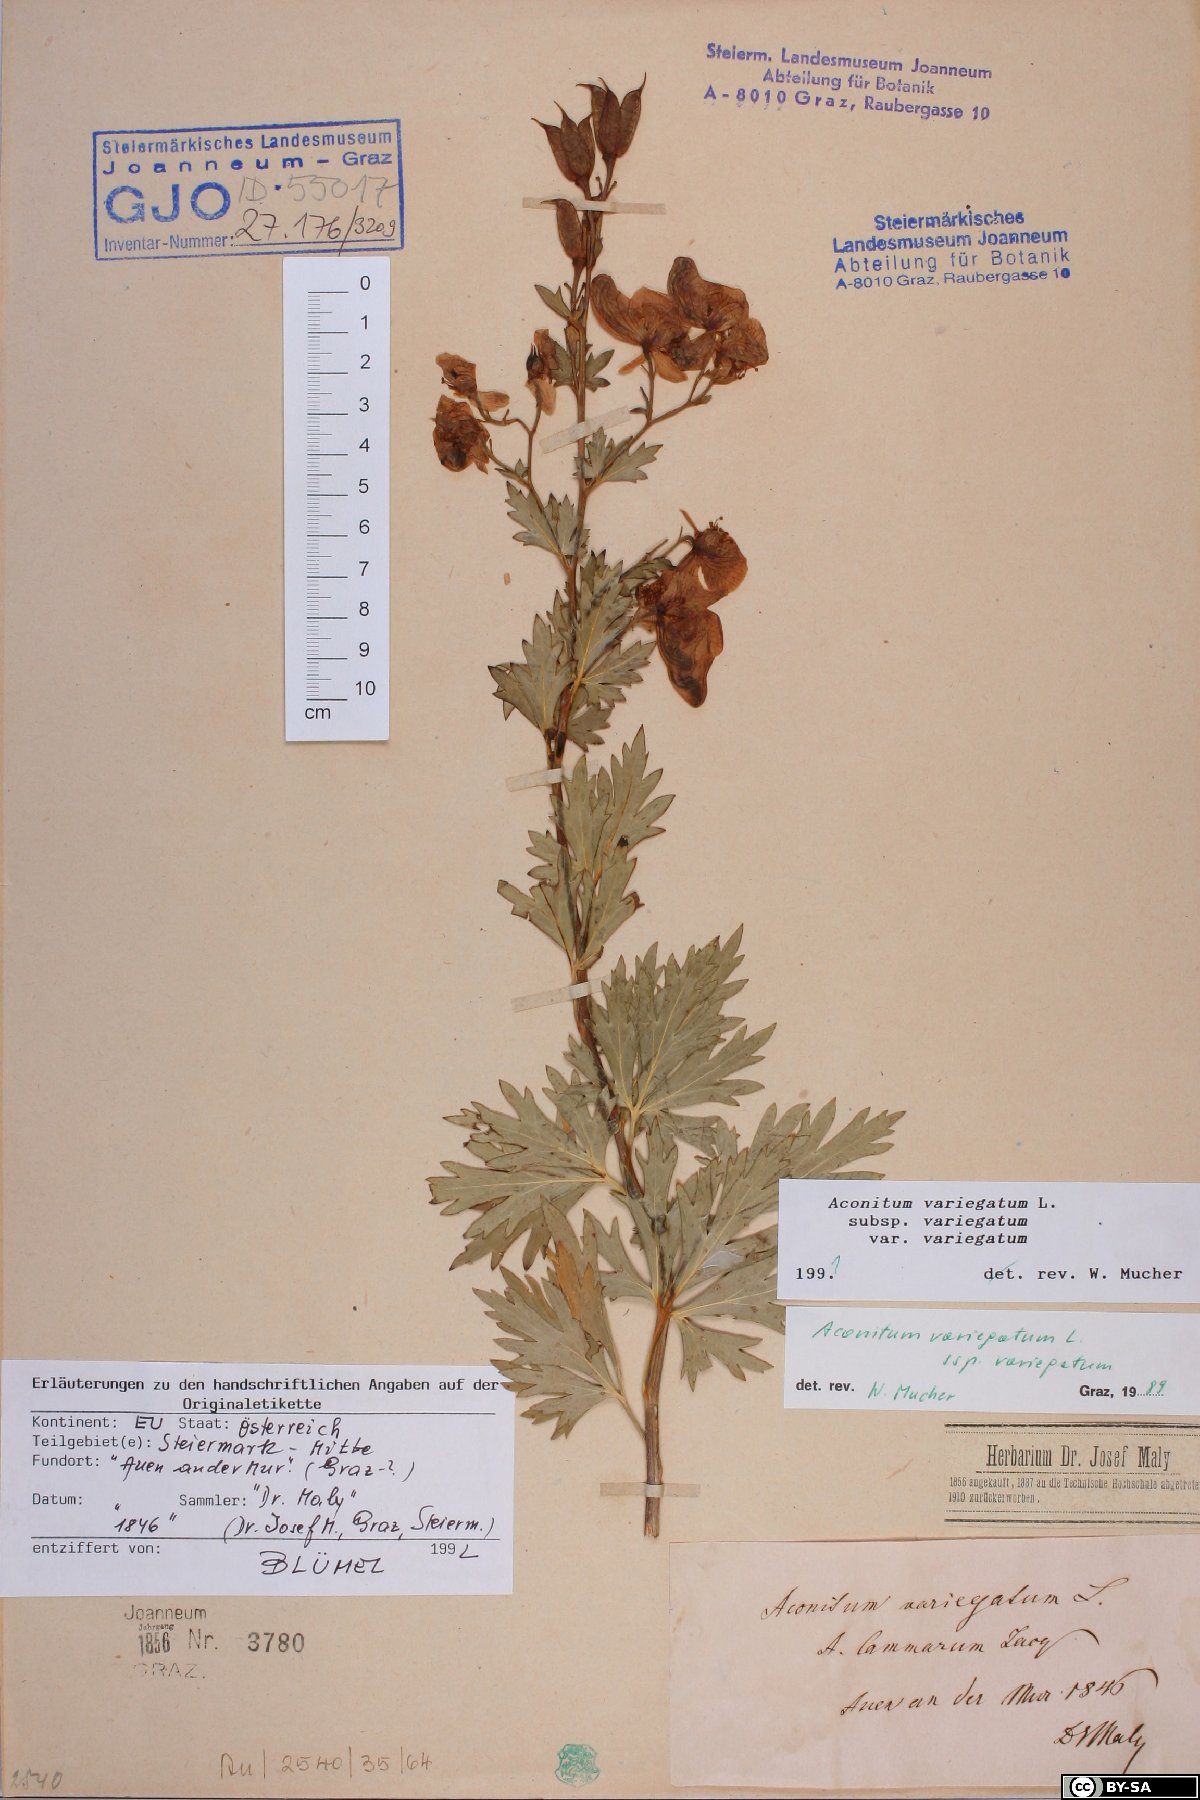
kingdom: Plantae
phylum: Tracheophyta
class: Magnoliopsida
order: Ranunculales
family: Ranunculaceae
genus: Aconitum
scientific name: Aconitum variegatum
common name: Manchurian monkshood
